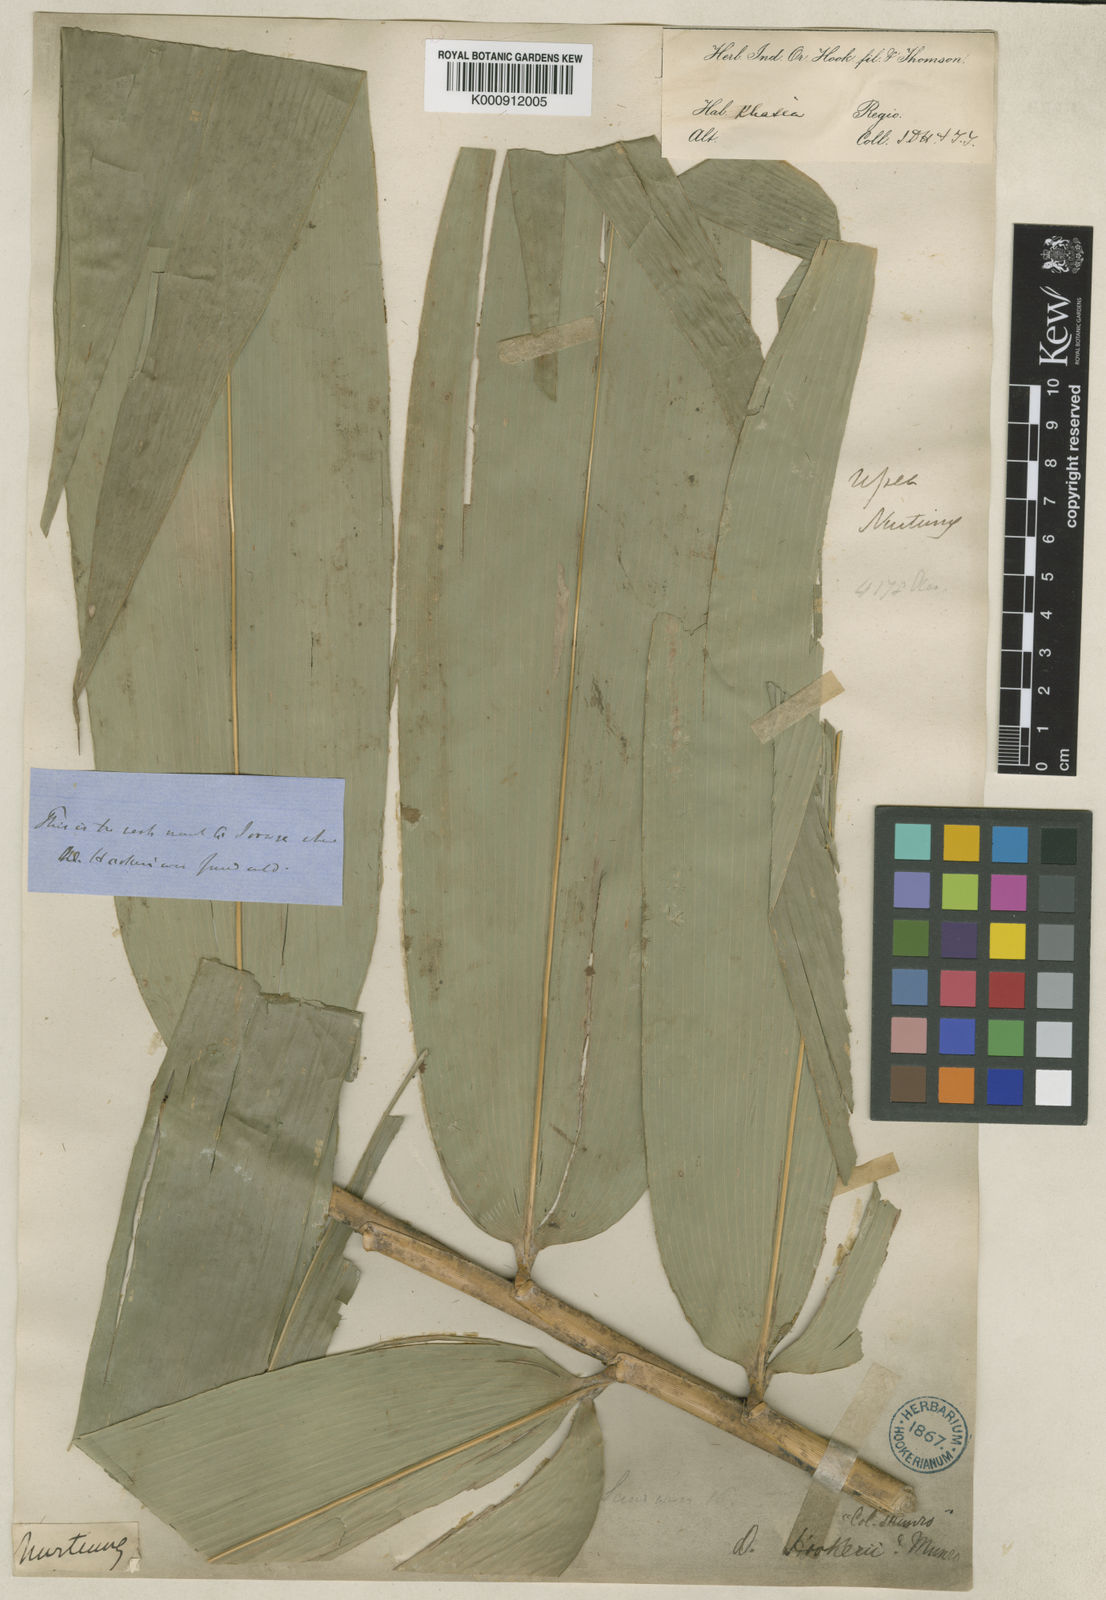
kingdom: Plantae
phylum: Tracheophyta
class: Liliopsida
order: Poales
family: Poaceae
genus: Dendrocalamus
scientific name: Dendrocalamus hookeri
